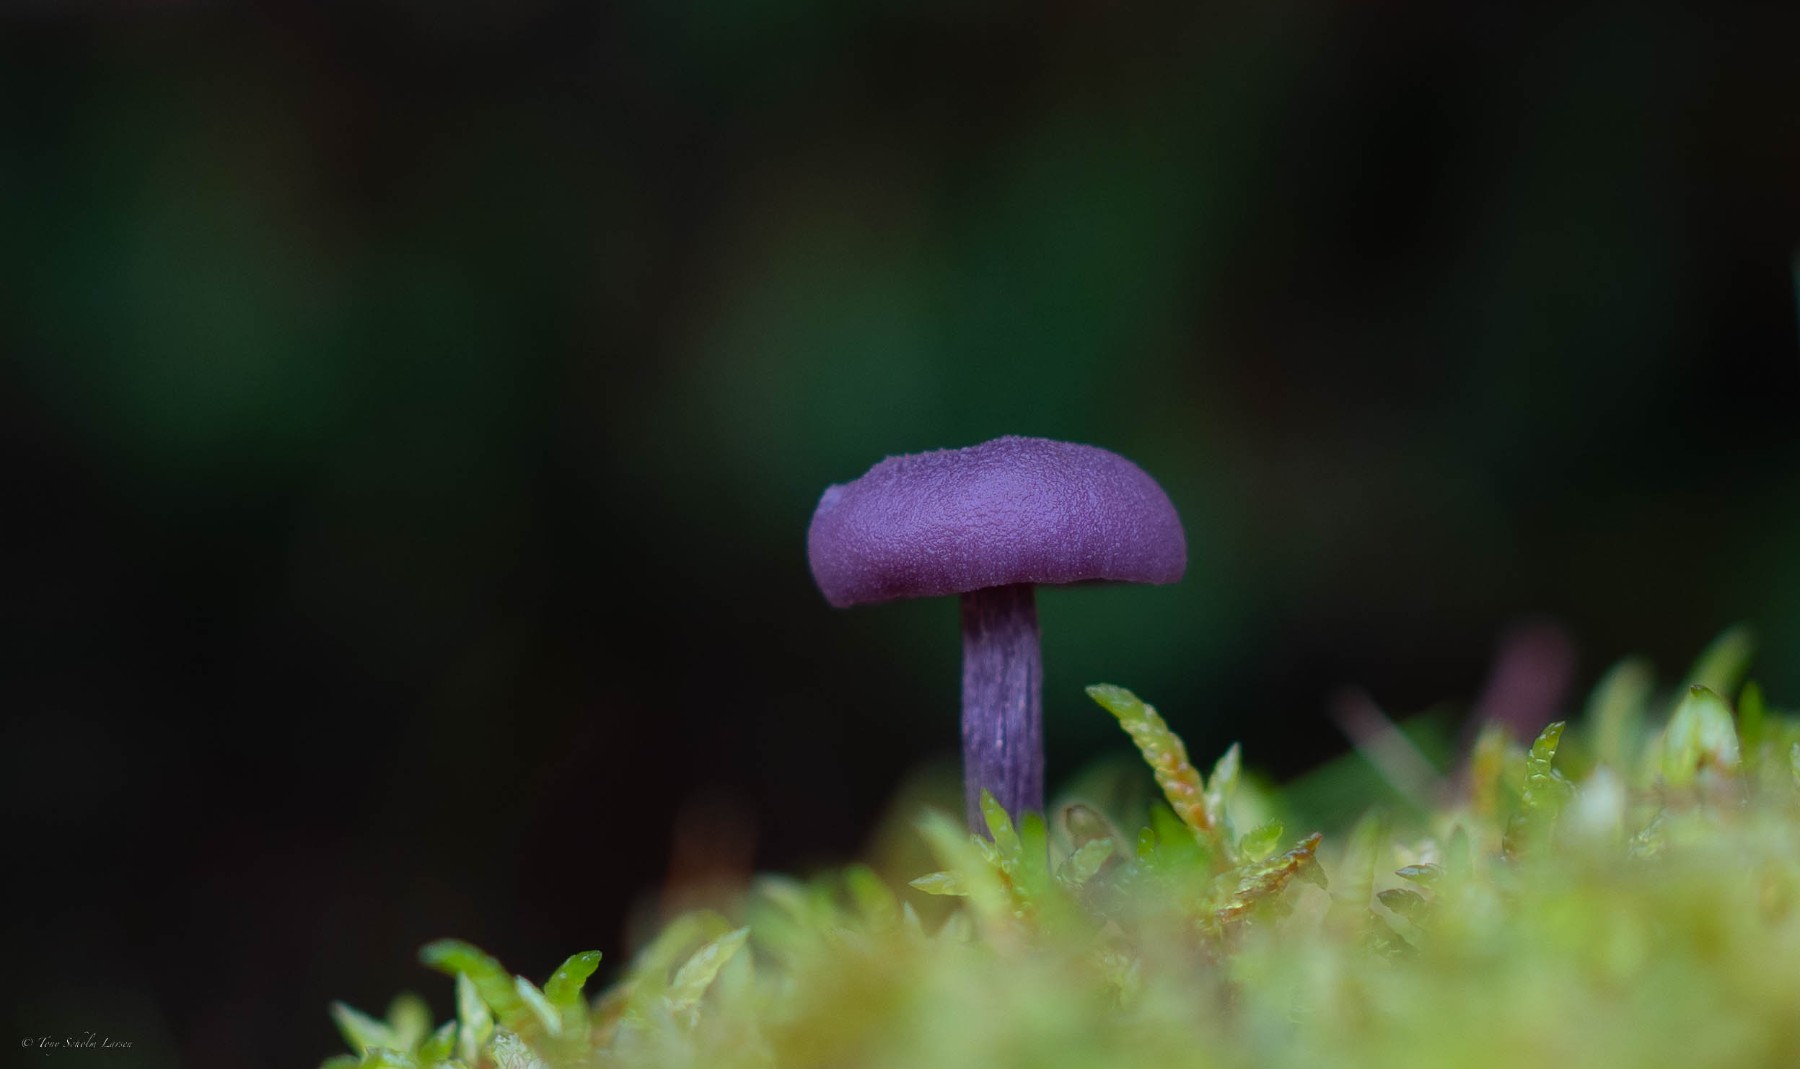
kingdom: Fungi
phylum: Basidiomycota
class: Agaricomycetes
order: Agaricales
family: Hydnangiaceae
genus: Laccaria
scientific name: Laccaria amethystina
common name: violet ametysthat
